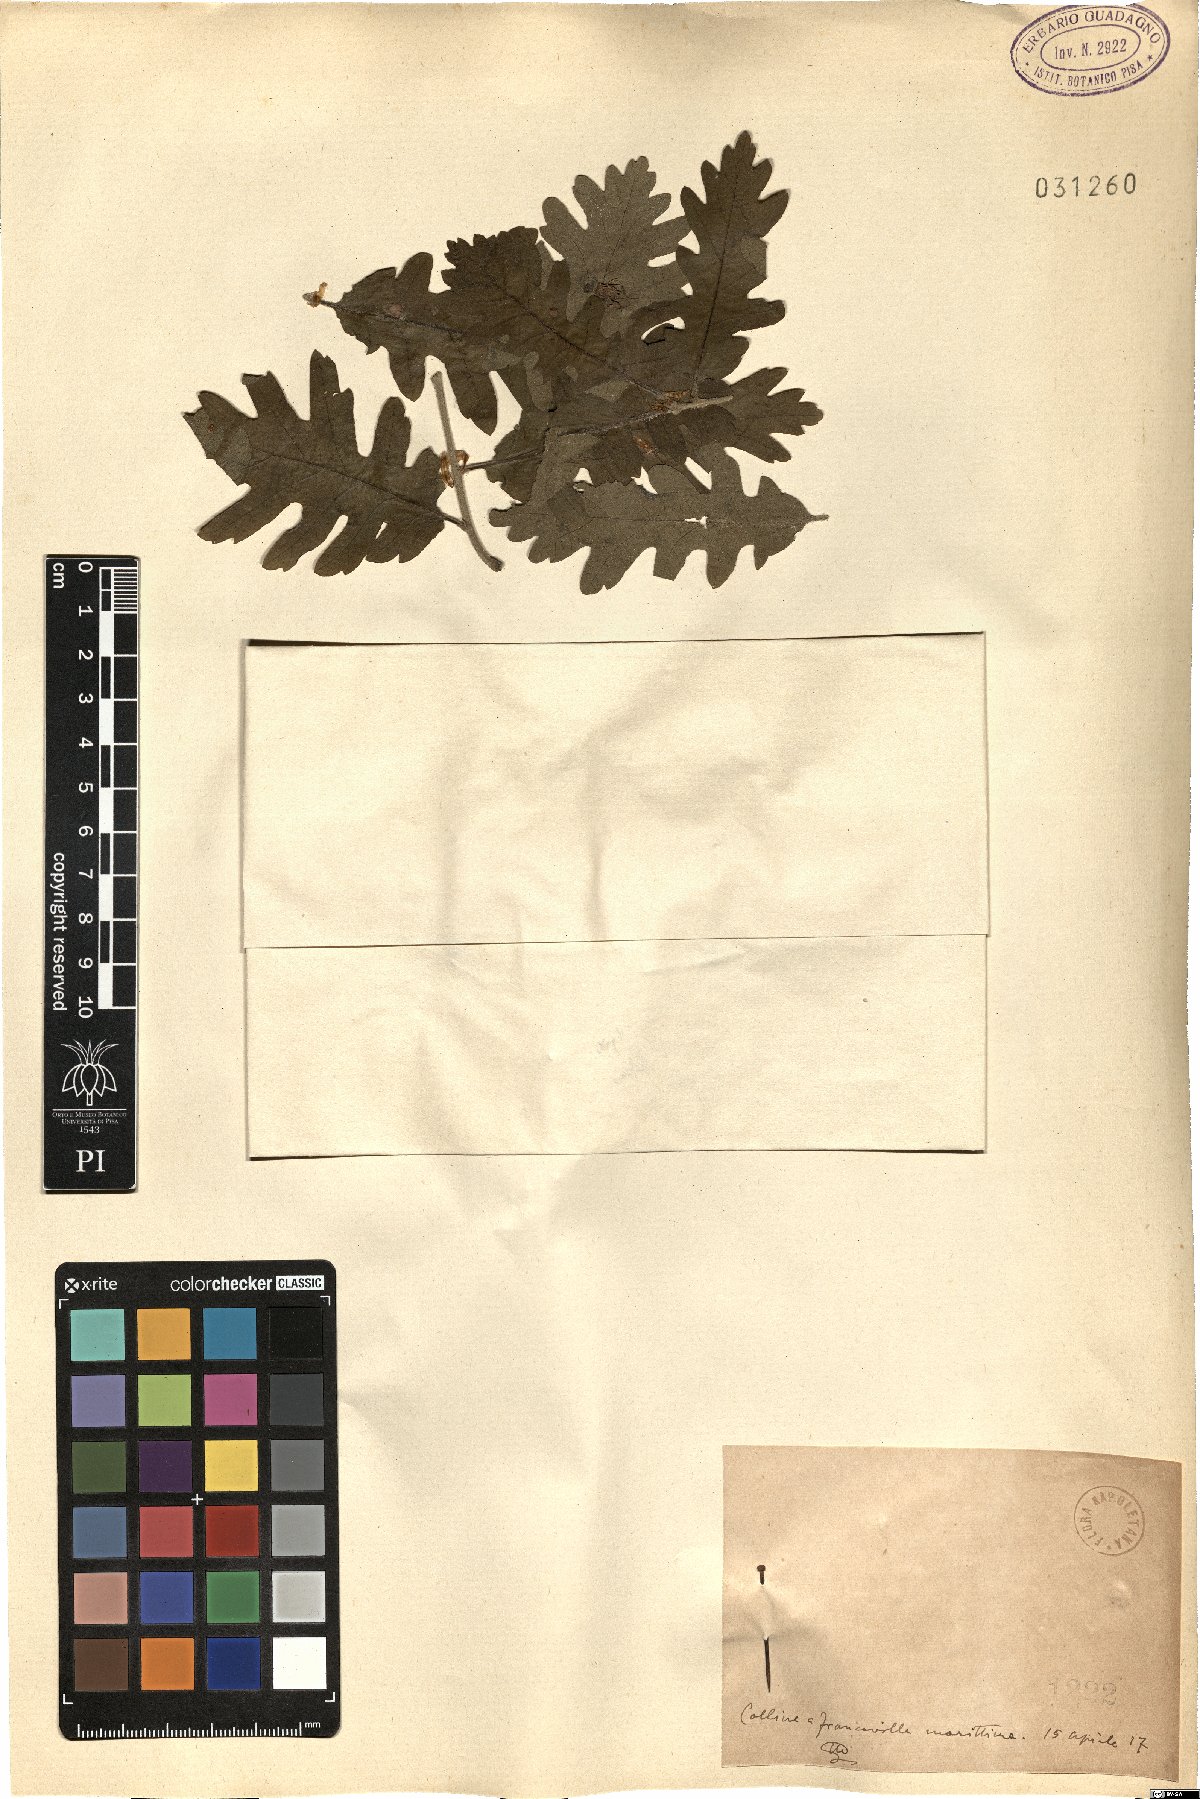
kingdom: Plantae
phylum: Tracheophyta
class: Magnoliopsida
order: Fagales
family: Fagaceae
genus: Quercus
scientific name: Quercus
